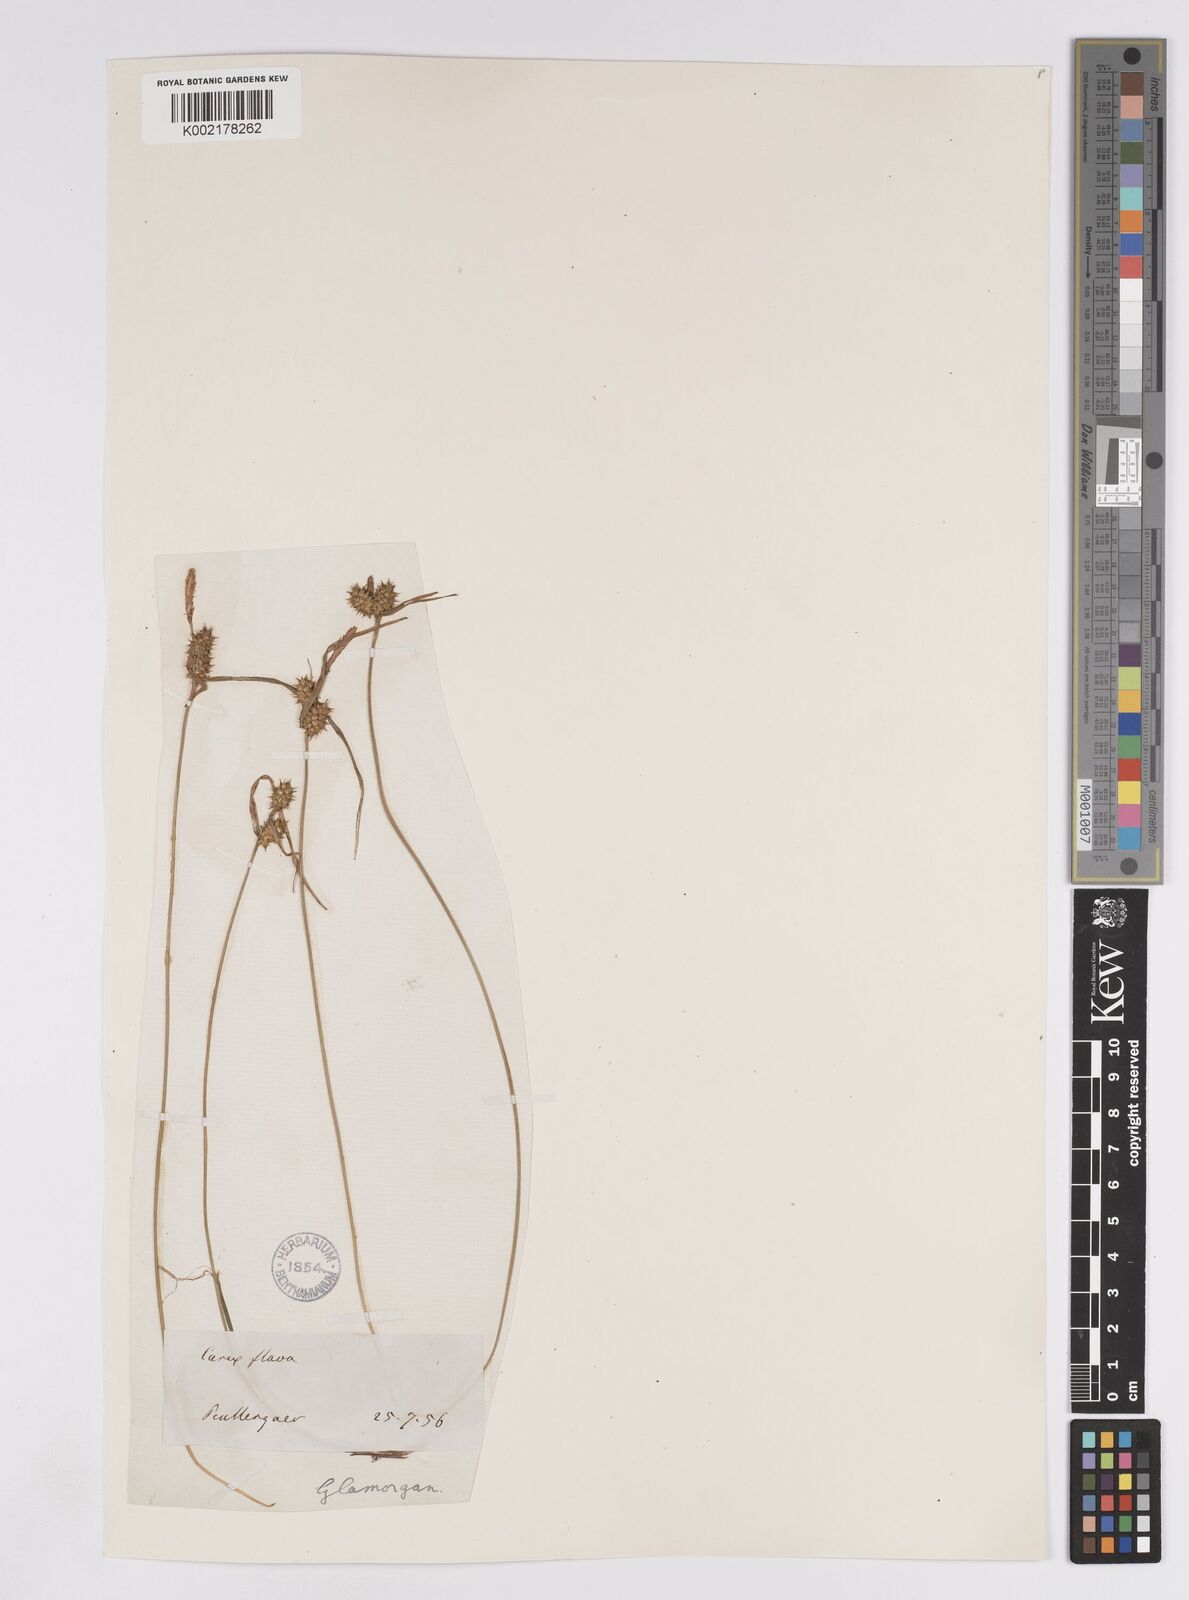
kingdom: Plantae
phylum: Tracheophyta
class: Liliopsida
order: Poales
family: Cyperaceae
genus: Carex
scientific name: Carex demissa
